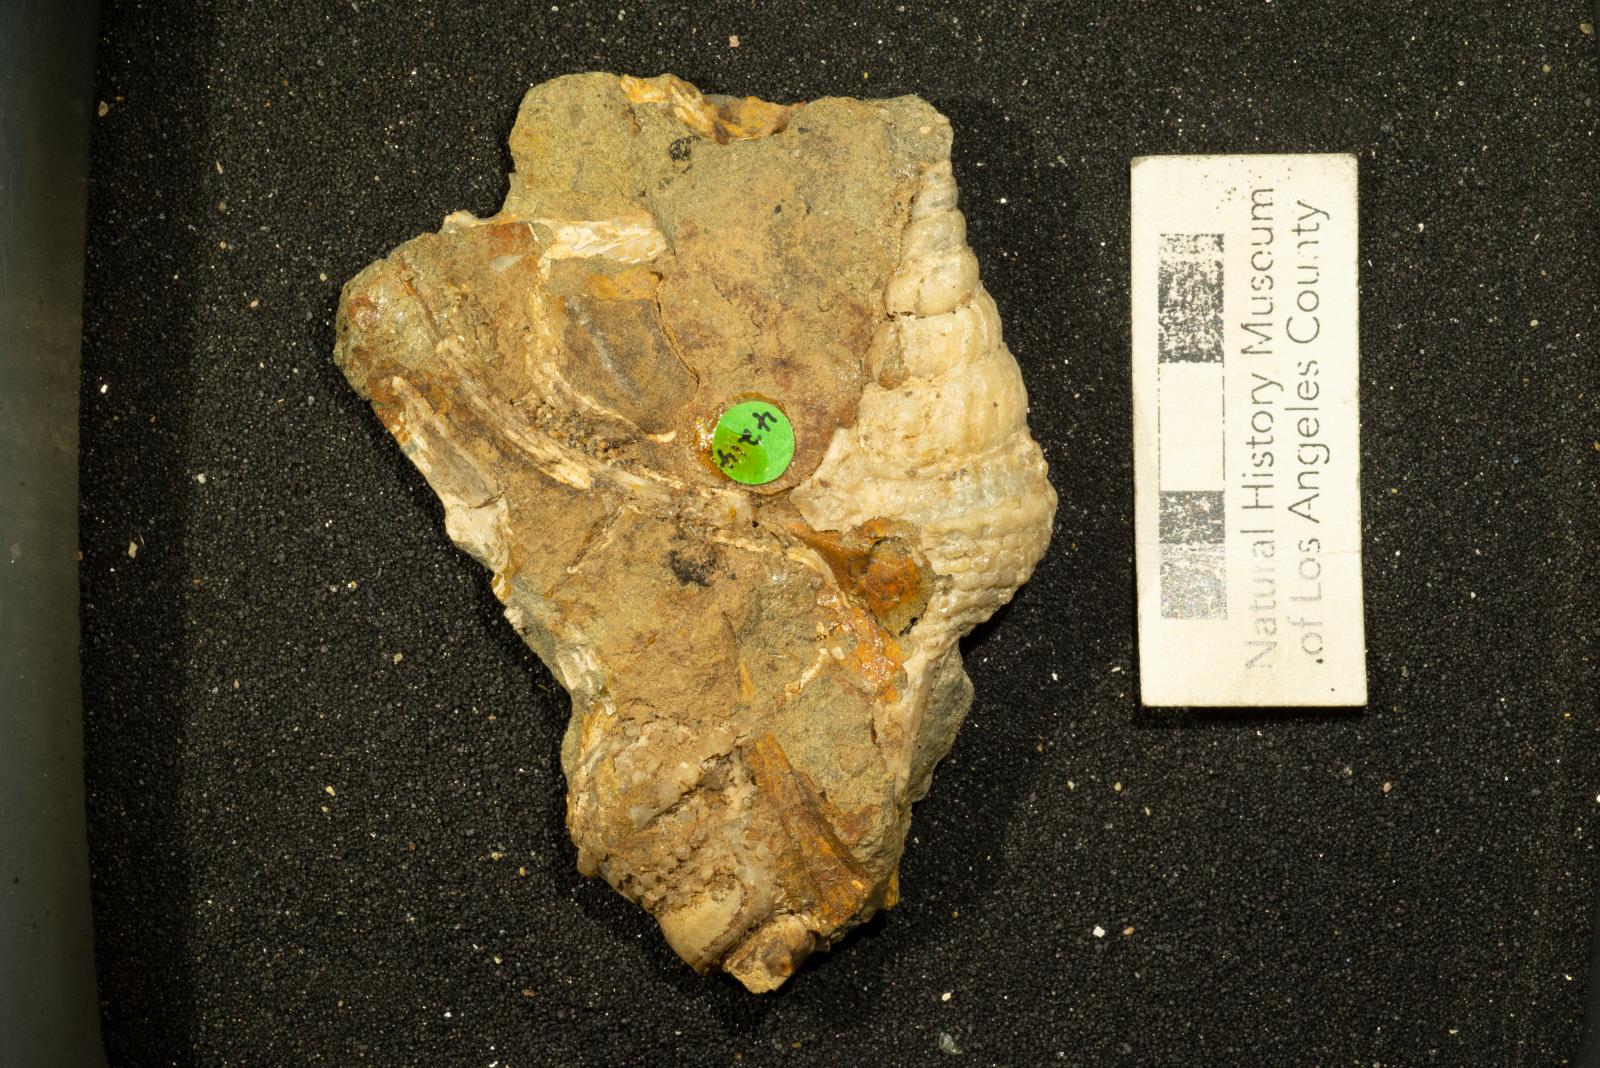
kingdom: Animalia
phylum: Mollusca
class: Gastropoda
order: Littorinimorpha
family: Aporrhaidae
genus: Helicaulax
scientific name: Helicaulax condoniana
